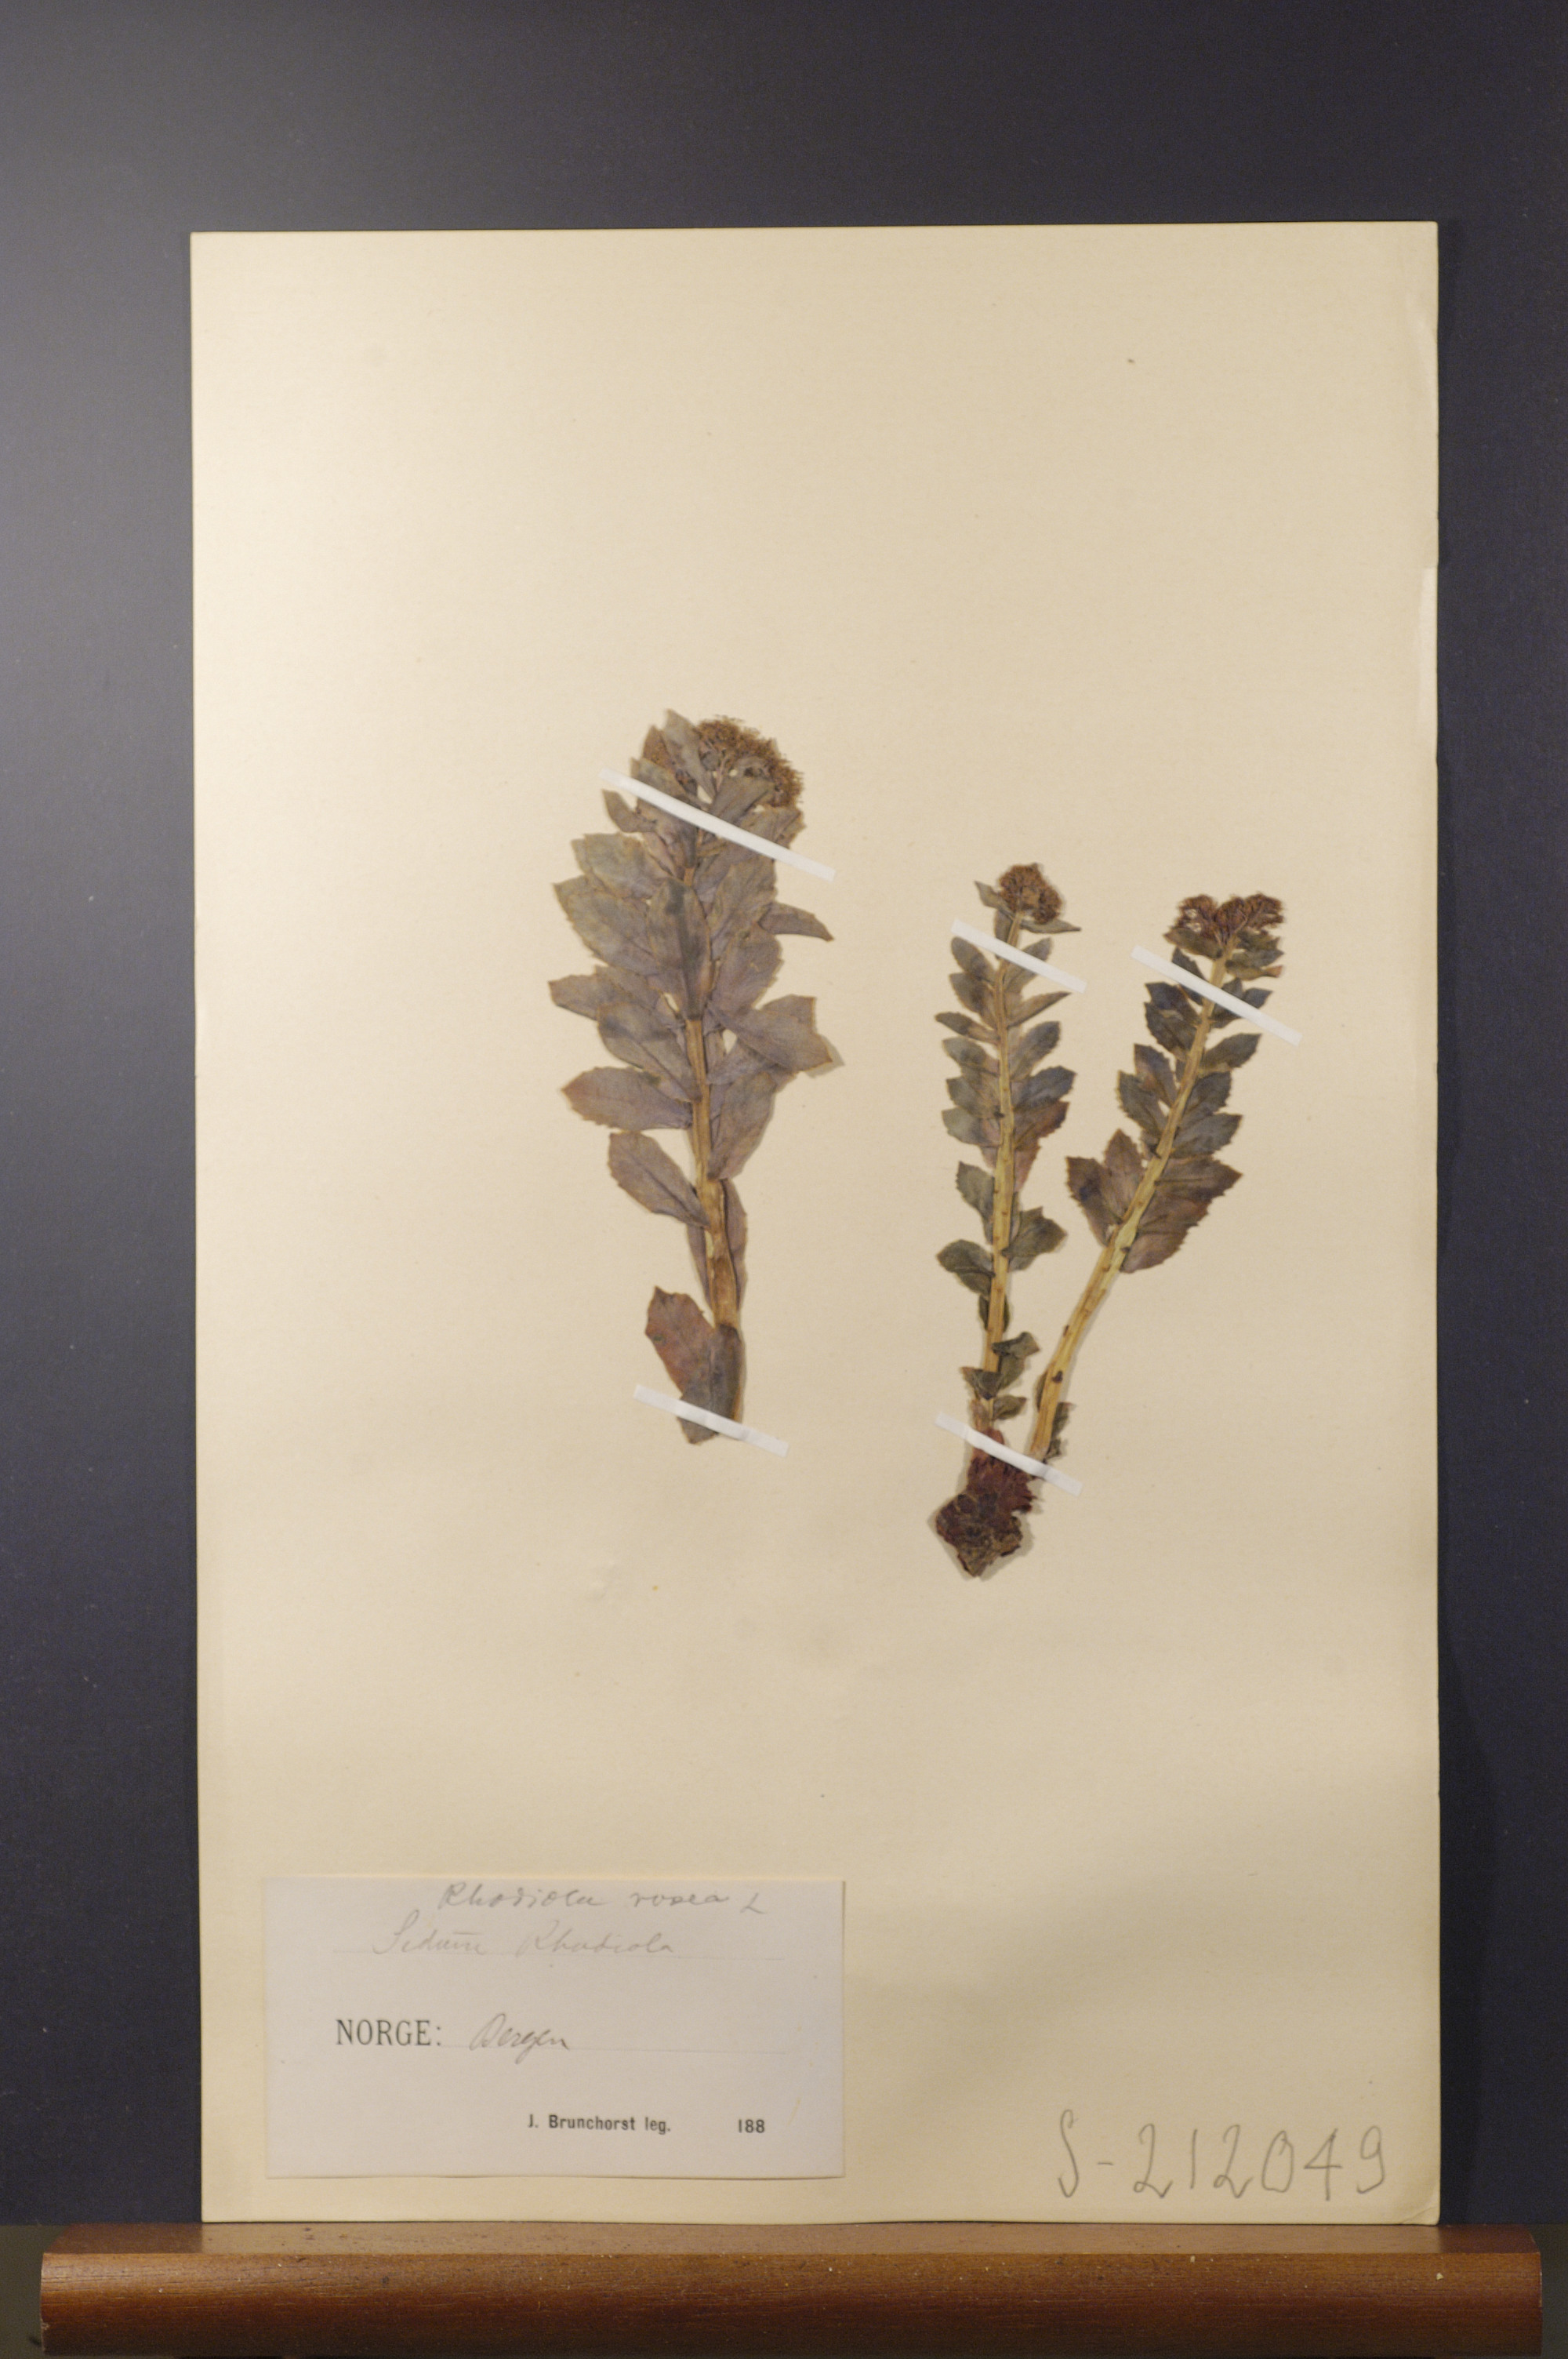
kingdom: Plantae
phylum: Tracheophyta
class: Magnoliopsida
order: Saxifragales
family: Crassulaceae
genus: Rhodiola
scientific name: Rhodiola rosea
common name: Roseroot
